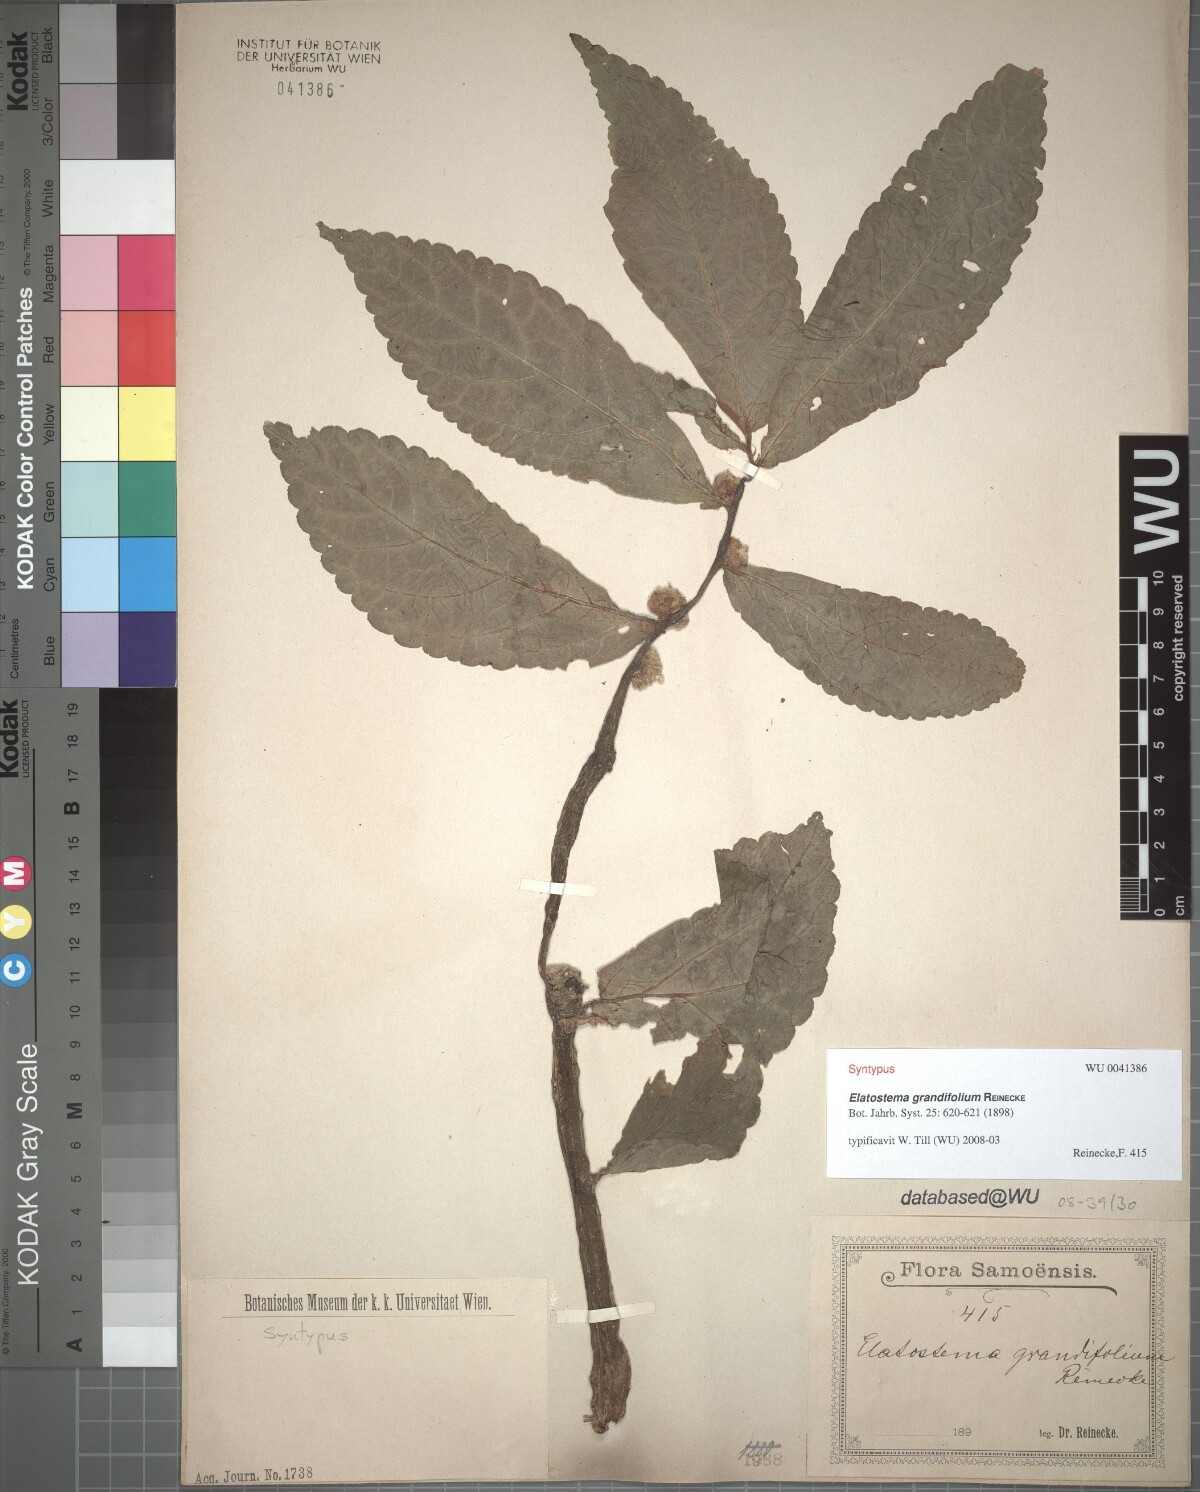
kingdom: Plantae
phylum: Tracheophyta
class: Magnoliopsida
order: Rosales
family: Urticaceae
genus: Elatostema
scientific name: Elatostema grandifolium
